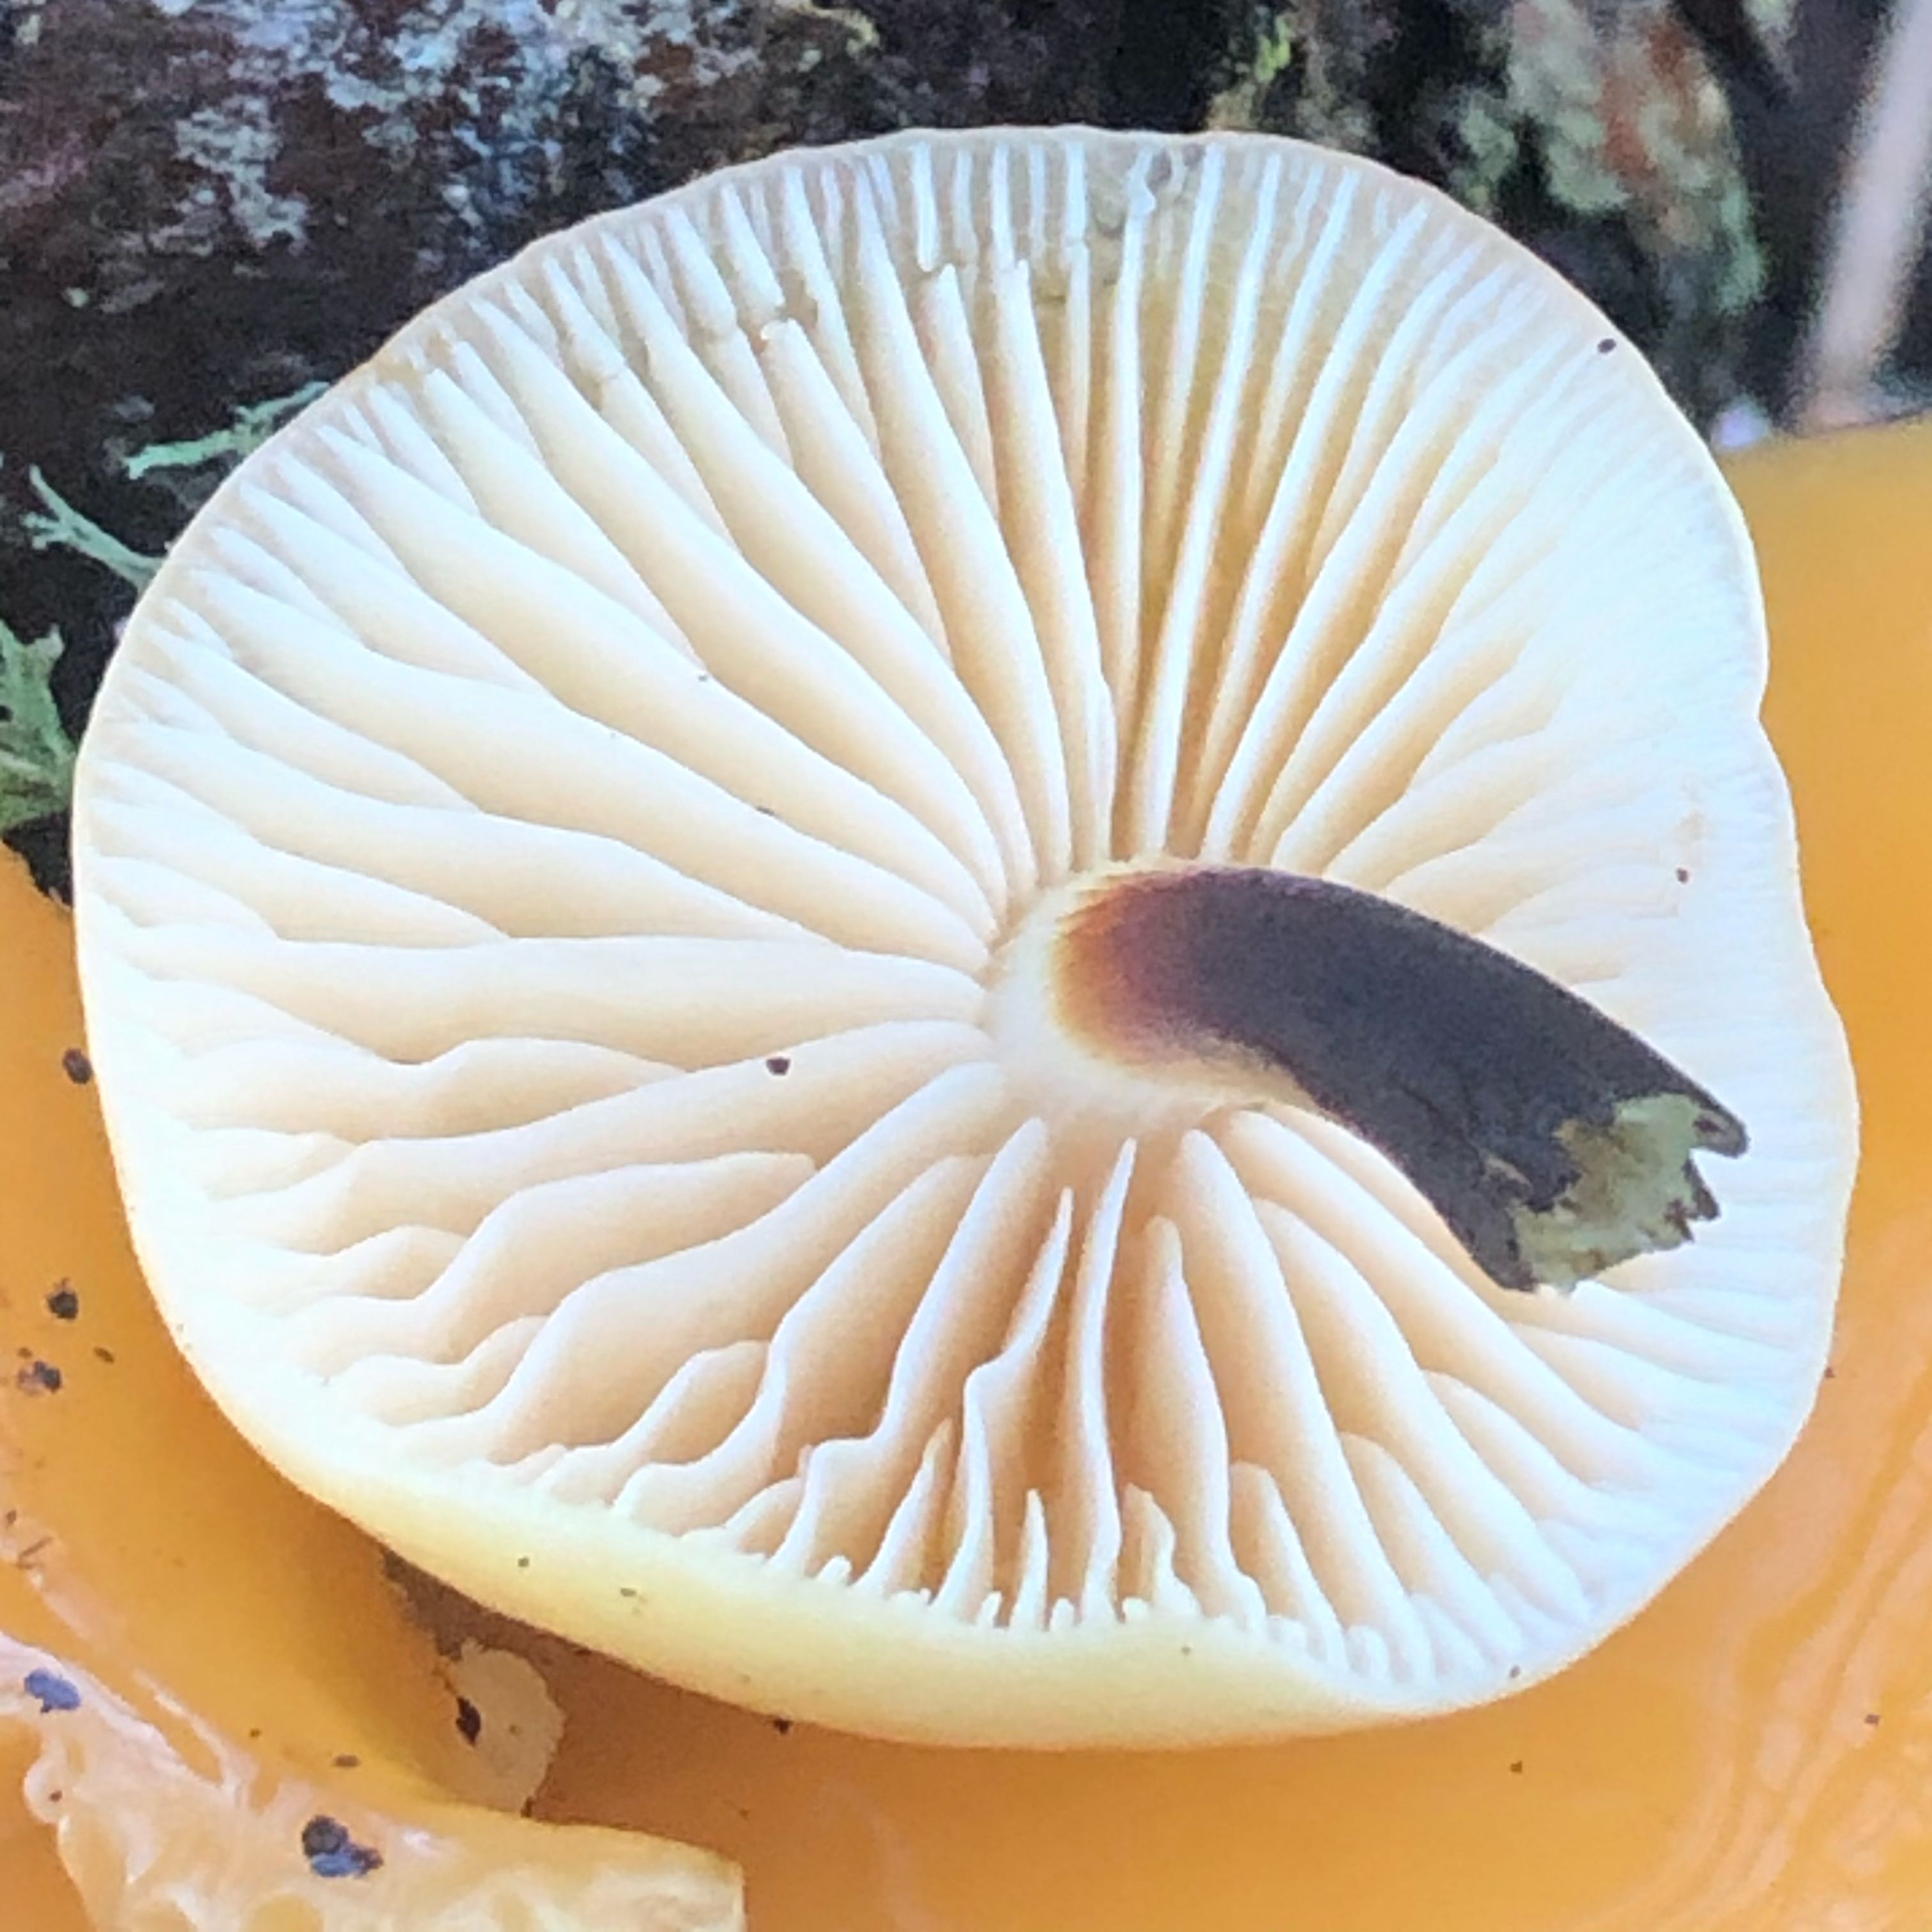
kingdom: Fungi
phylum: Basidiomycota
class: Agaricomycetes
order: Agaricales
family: Physalacriaceae
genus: Flammulina
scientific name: Flammulina
